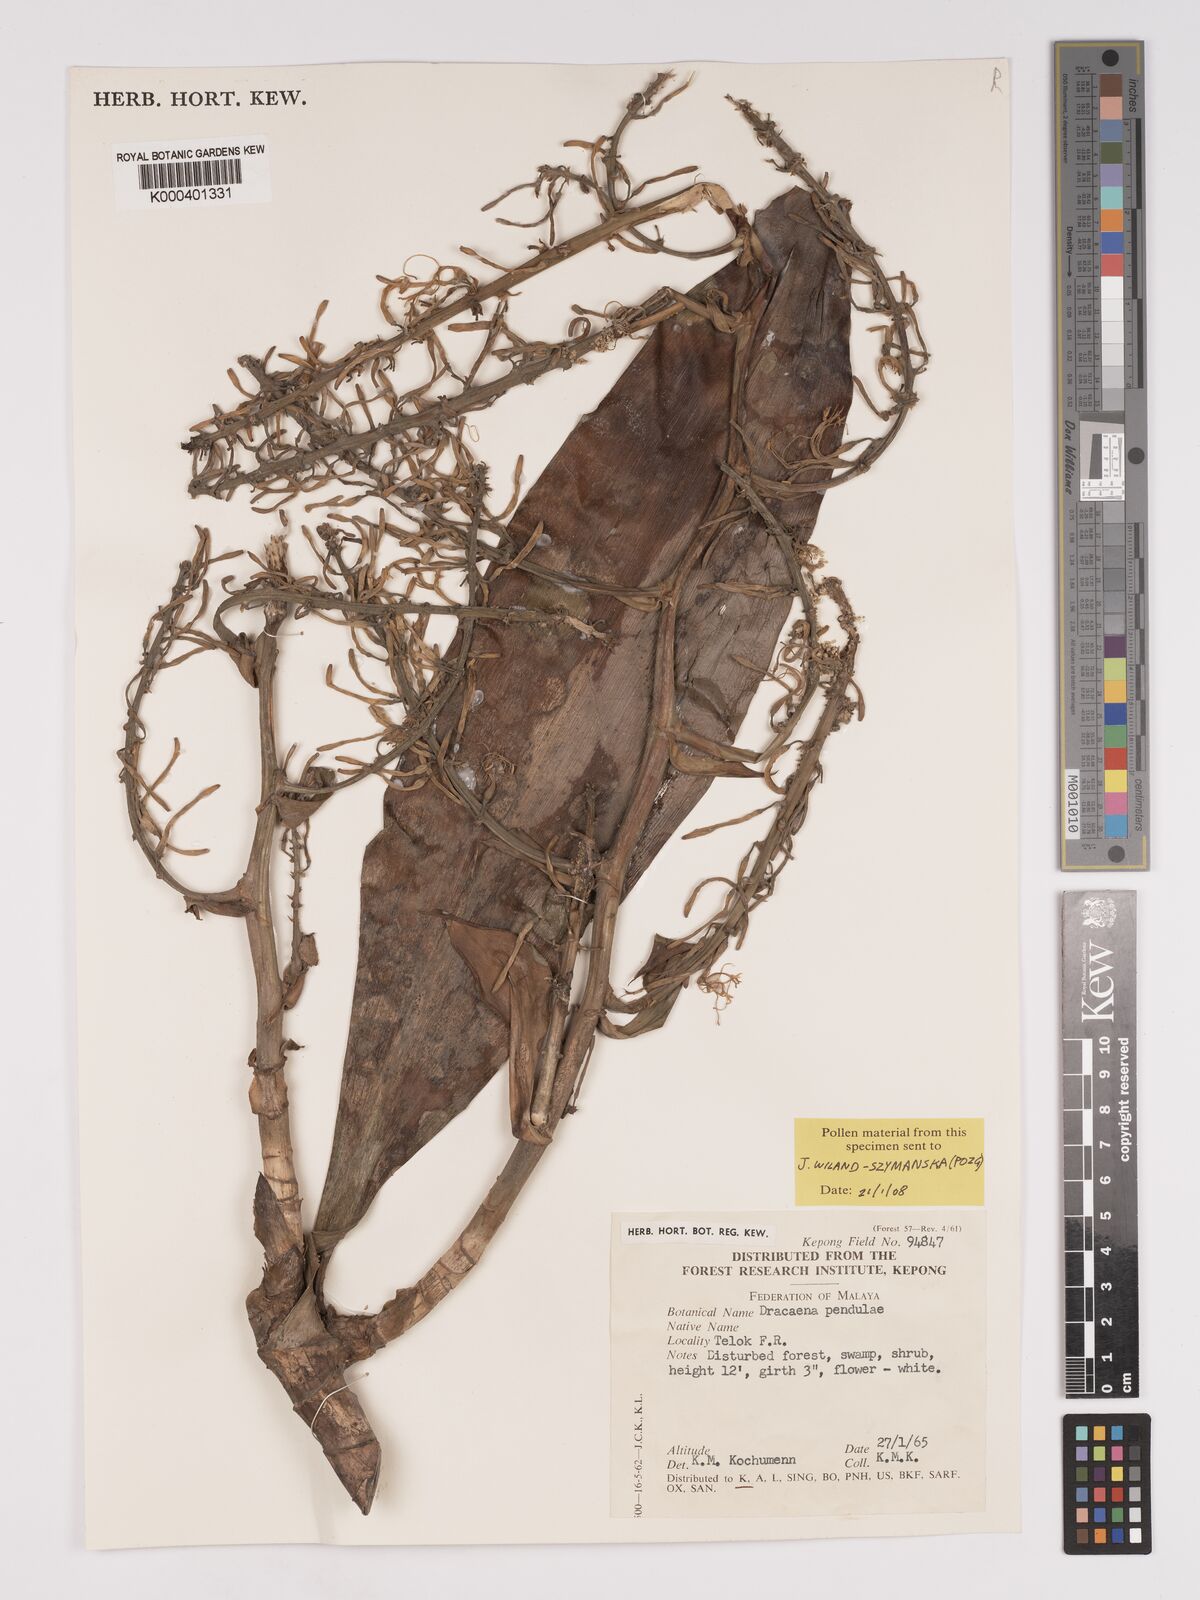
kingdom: Plantae
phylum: Tracheophyta
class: Liliopsida
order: Asparagales
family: Asparagaceae
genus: Dracaena
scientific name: Dracaena pendula
